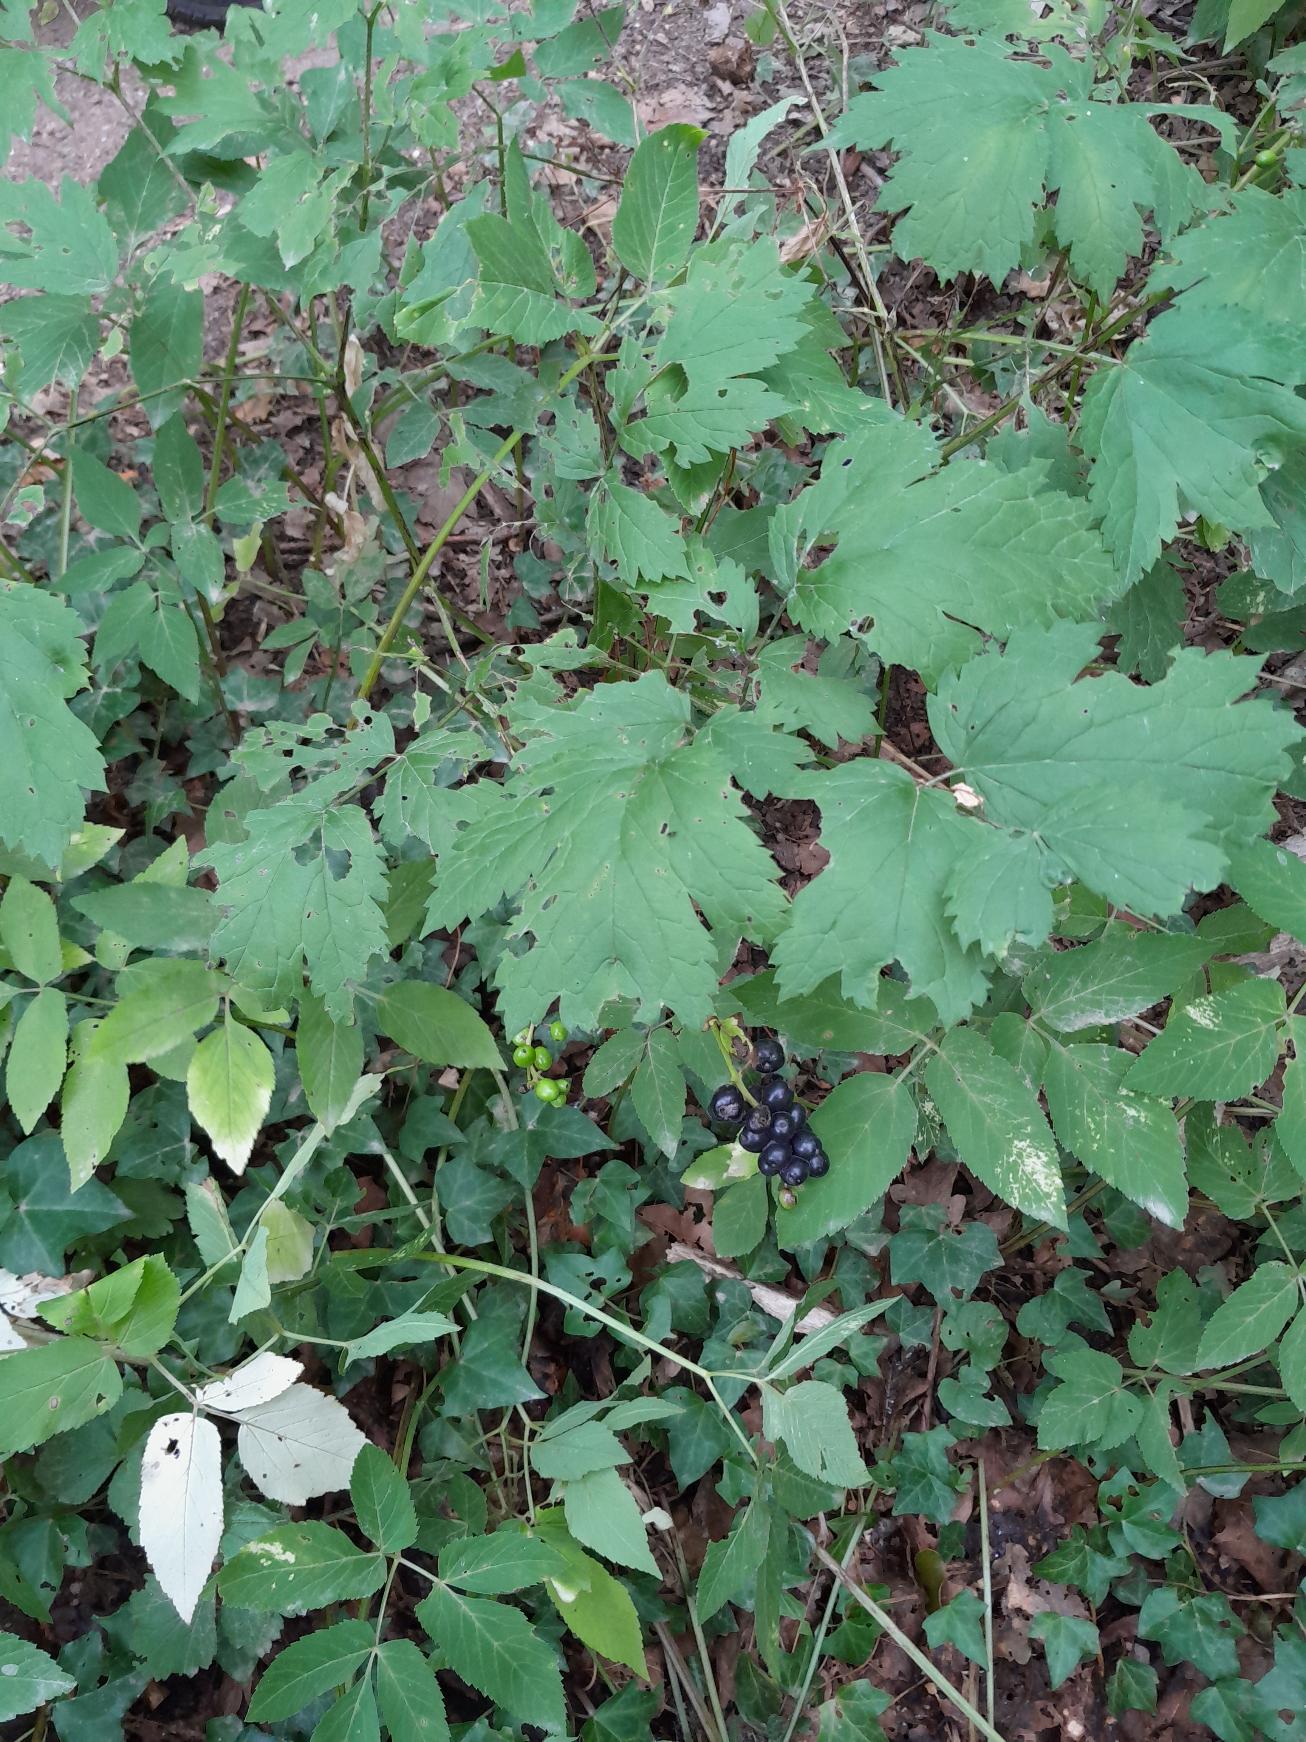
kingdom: Plantae
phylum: Tracheophyta
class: Magnoliopsida
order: Ranunculales
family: Ranunculaceae
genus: Actaea
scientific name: Actaea spicata
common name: Druemunke
